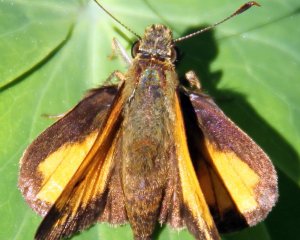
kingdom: Animalia
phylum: Arthropoda
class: Insecta
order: Lepidoptera
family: Hesperiidae
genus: Lon
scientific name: Lon hobomok
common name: Hobomok Skipper
